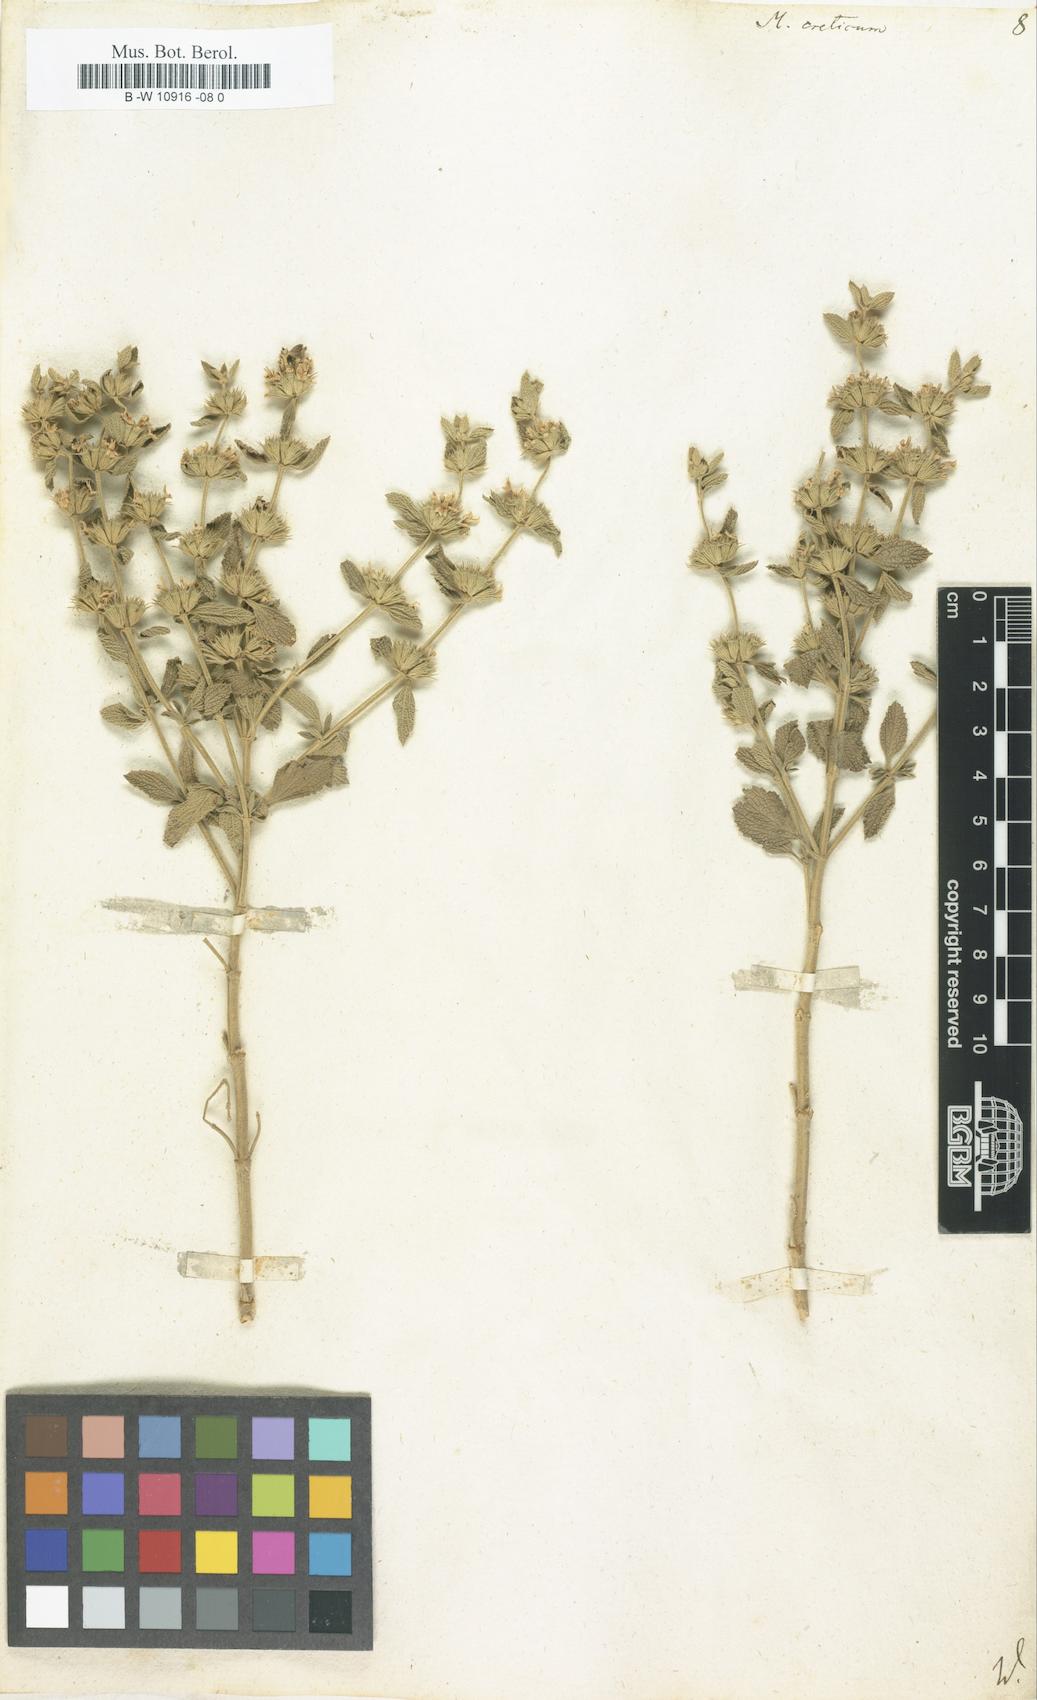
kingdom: Plantae
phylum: Tracheophyta
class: Magnoliopsida
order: Lamiales
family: Lamiaceae
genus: Marrubium
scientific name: Marrubium peregrinum
